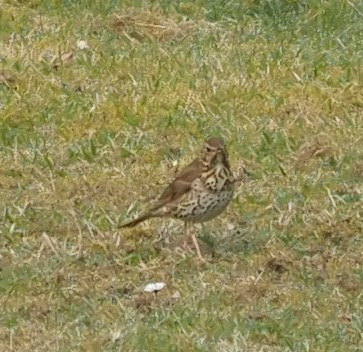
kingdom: Animalia
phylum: Chordata
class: Aves
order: Passeriformes
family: Turdidae
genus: Turdus
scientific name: Turdus philomelos
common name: Sangdrossel
